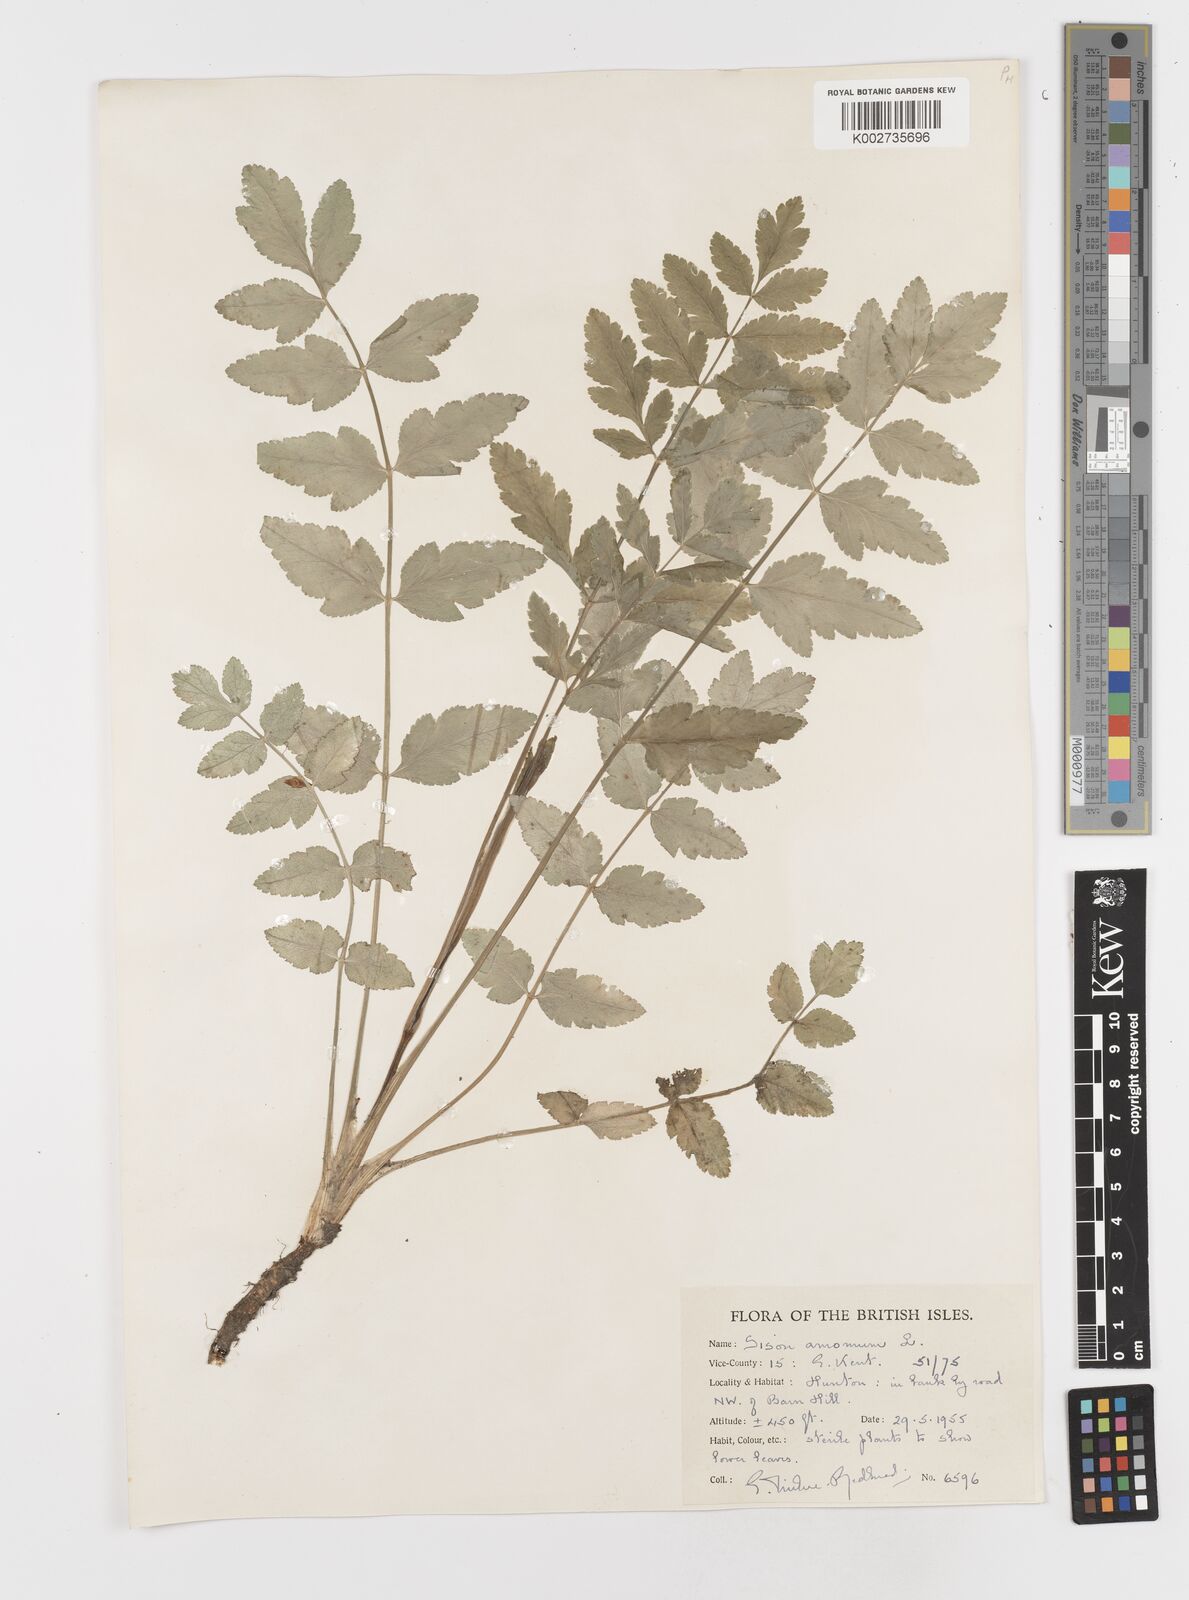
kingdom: Plantae
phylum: Tracheophyta
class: Magnoliopsida
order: Apiales
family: Apiaceae
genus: Sison
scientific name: Sison amomum
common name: Stone-parsley
